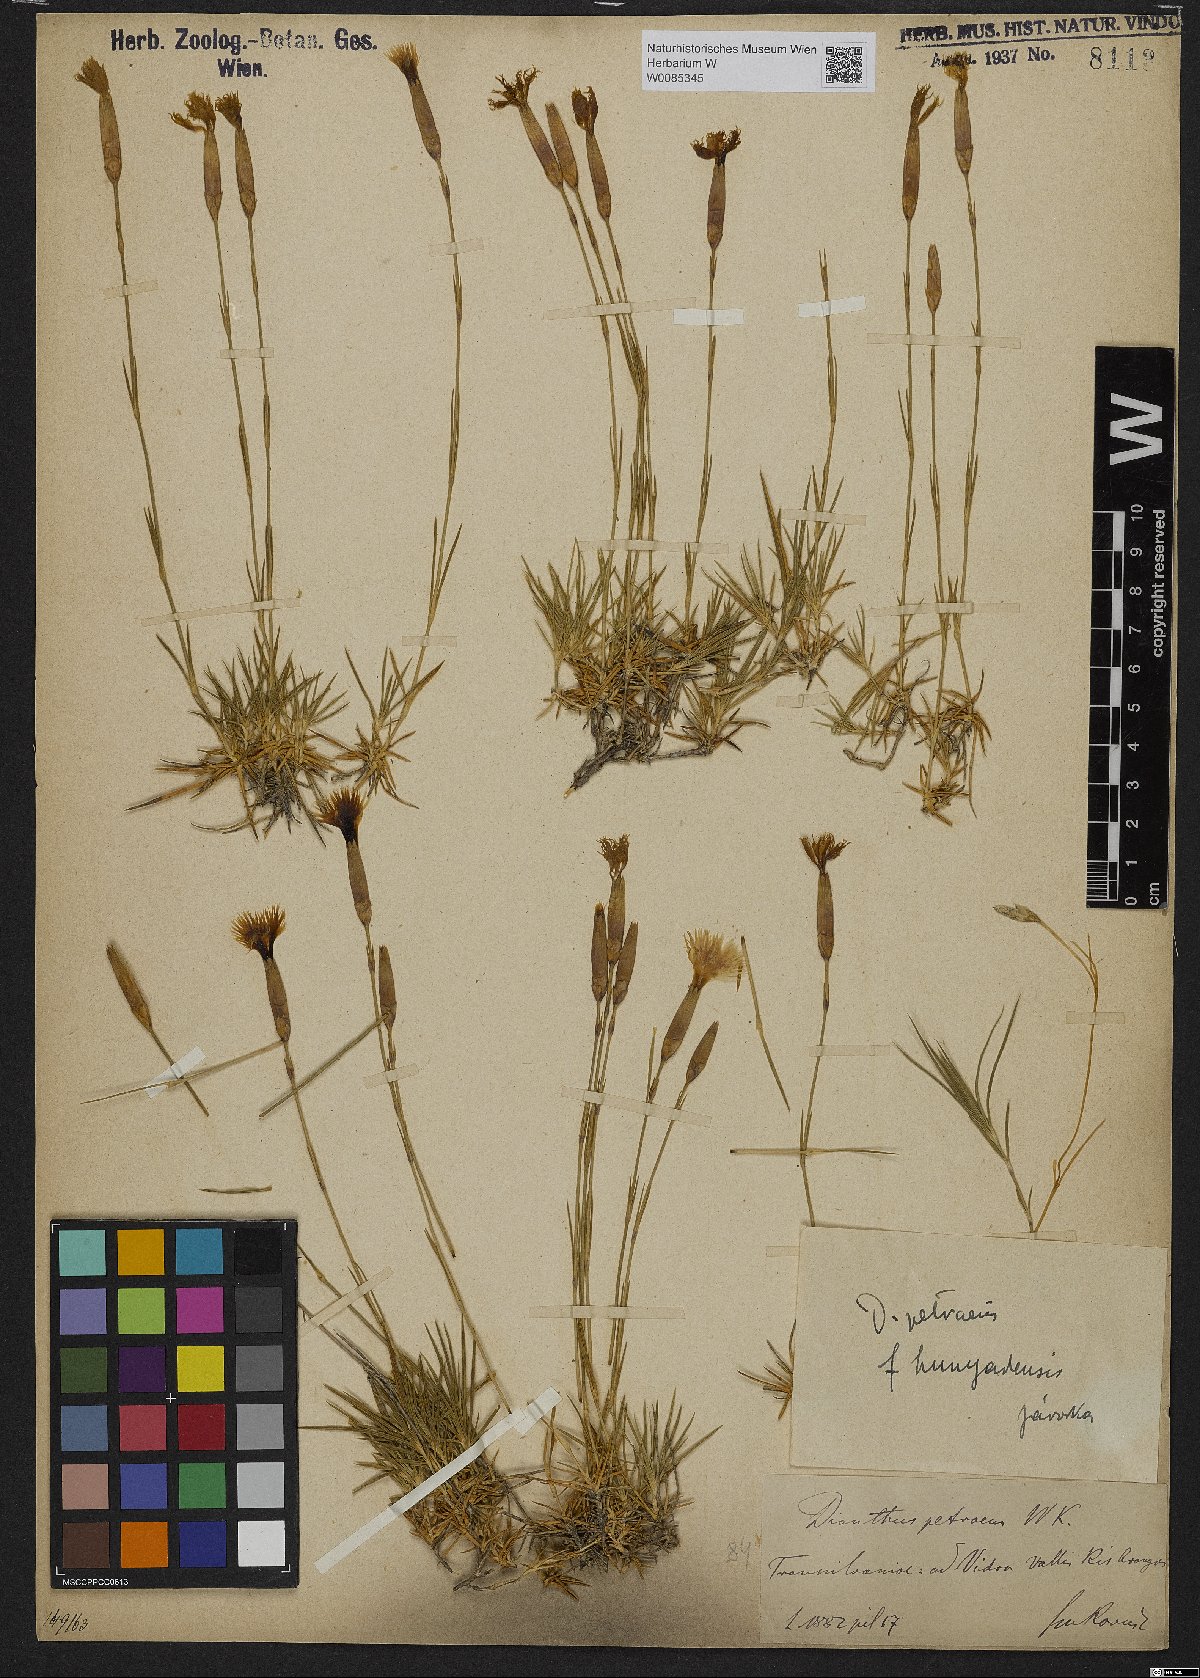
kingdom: Plantae
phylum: Tracheophyta
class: Magnoliopsida
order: Caryophyllales
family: Caryophyllaceae
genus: Dianthus
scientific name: Dianthus petraeus
